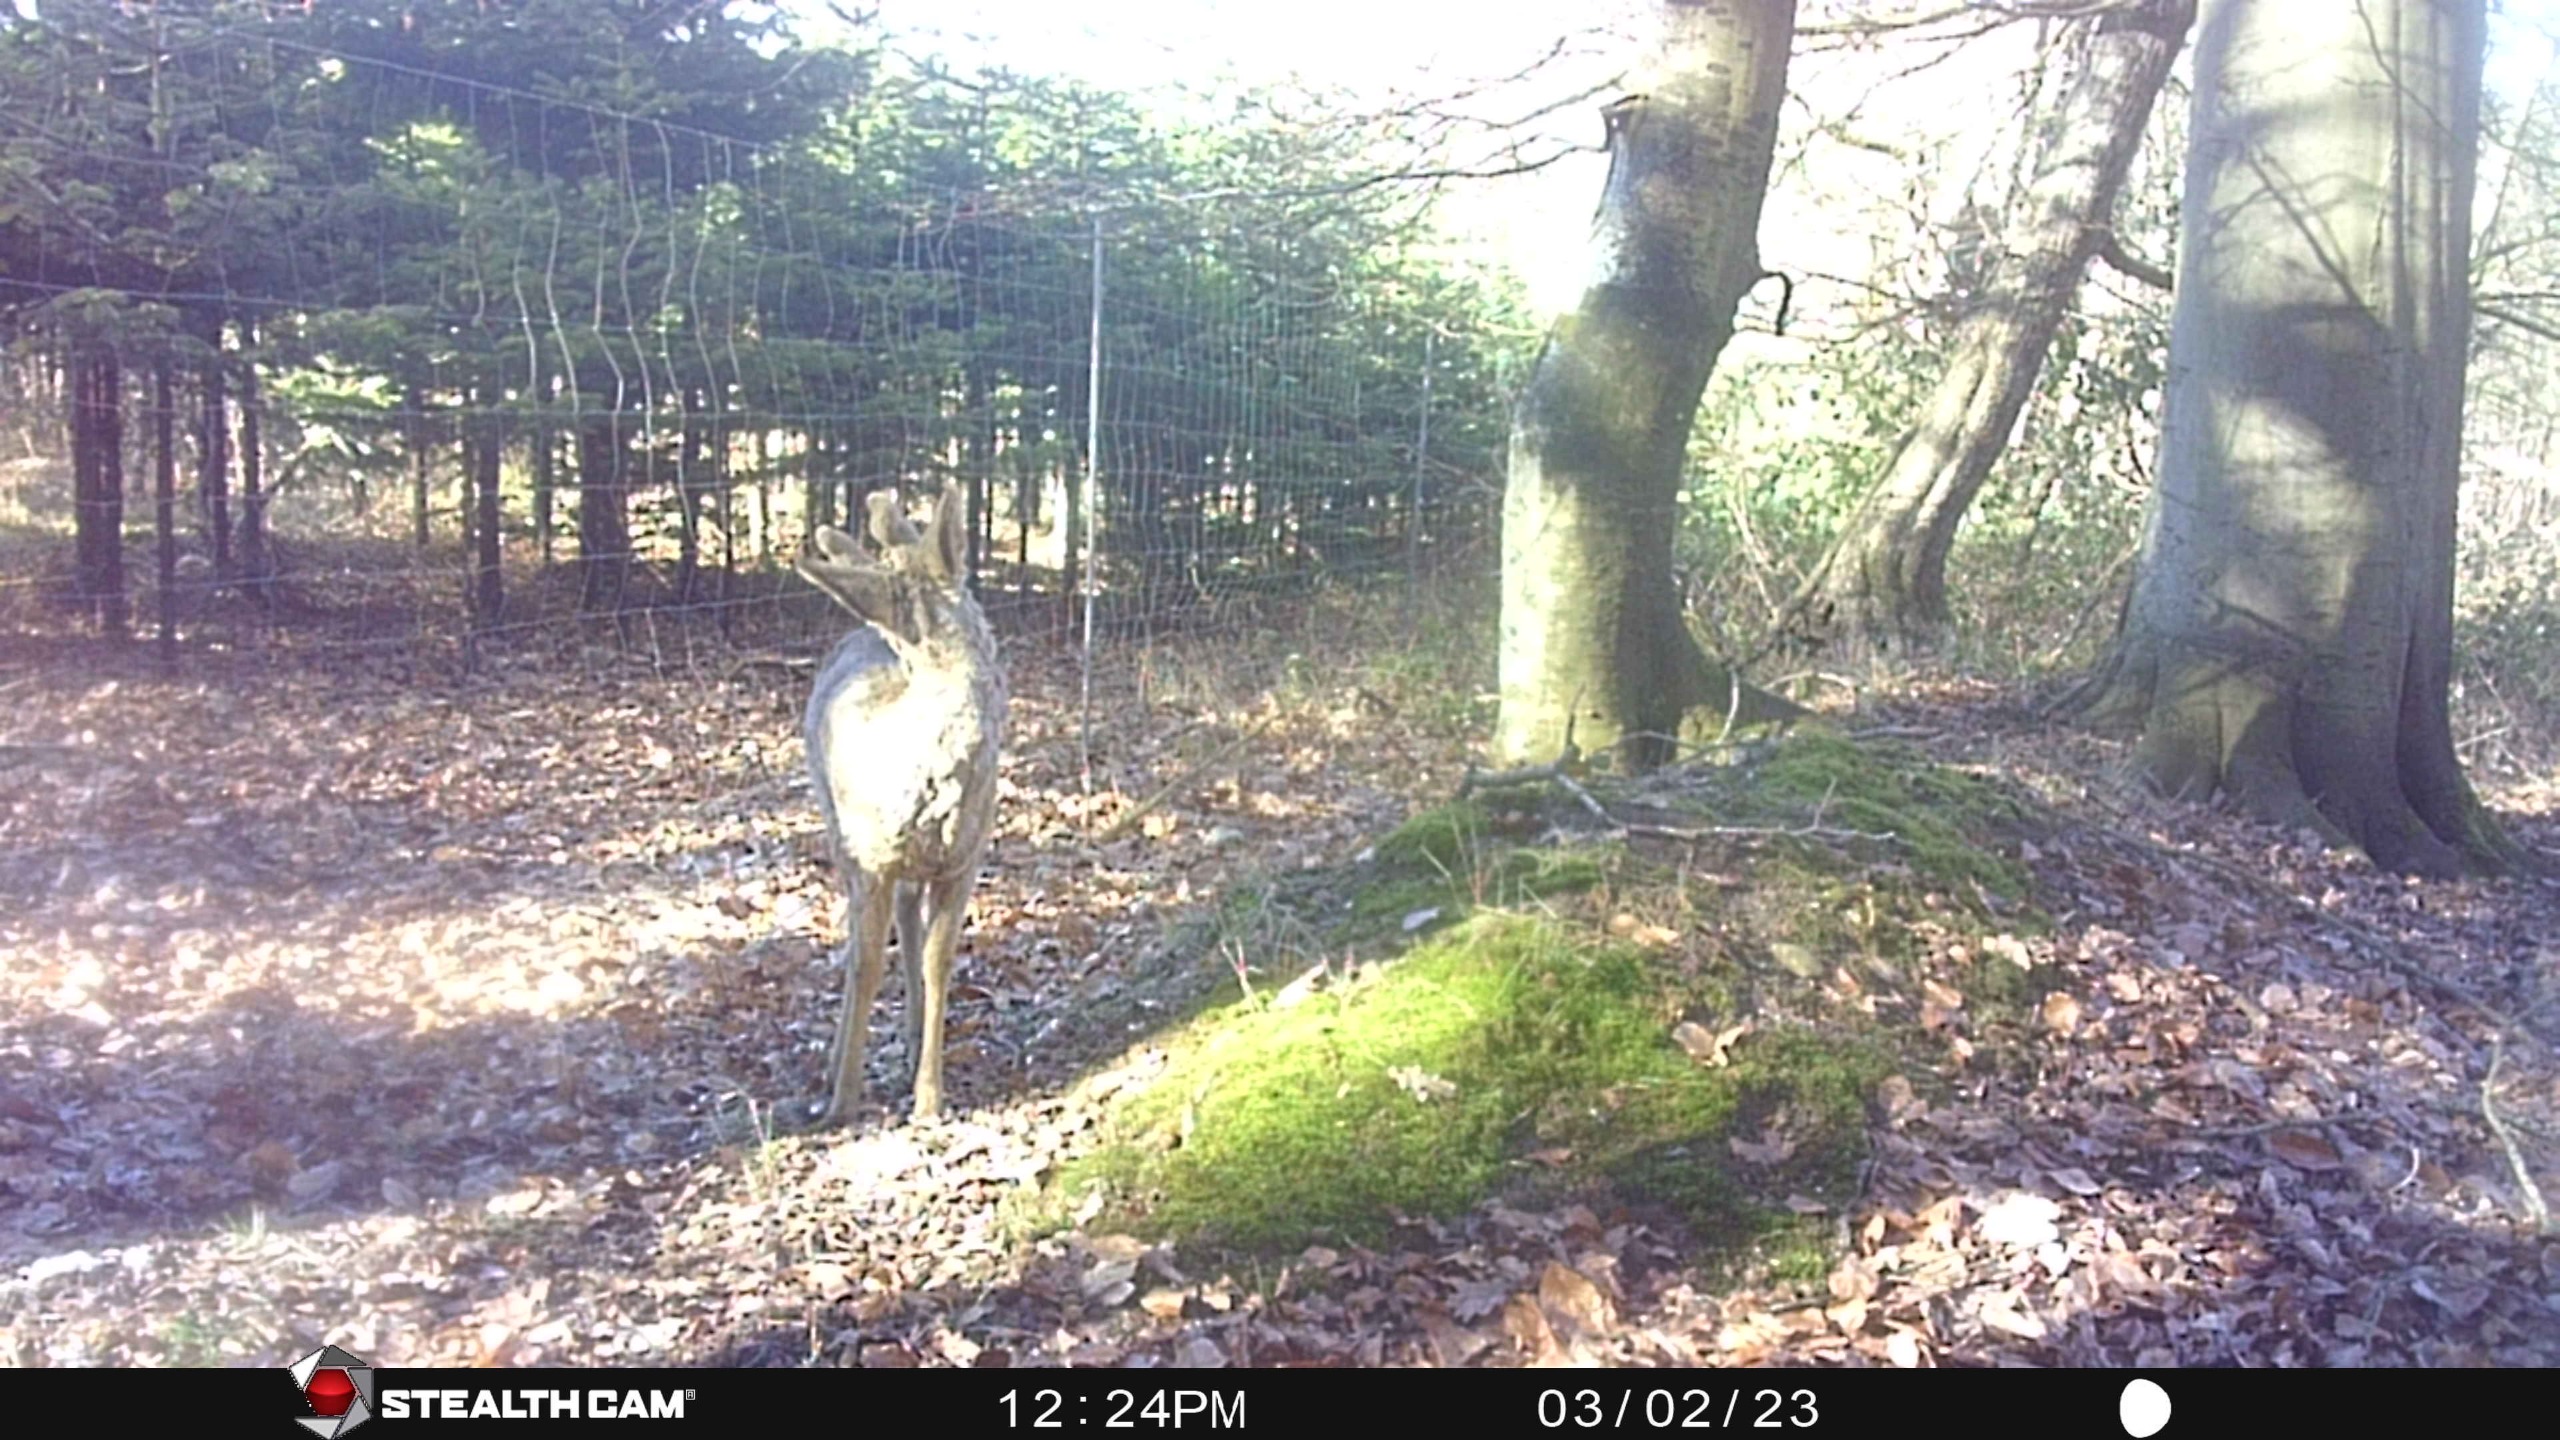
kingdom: Animalia
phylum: Chordata
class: Mammalia
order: Artiodactyla
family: Cervidae
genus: Capreolus
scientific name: Capreolus capreolus
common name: Rådyr
